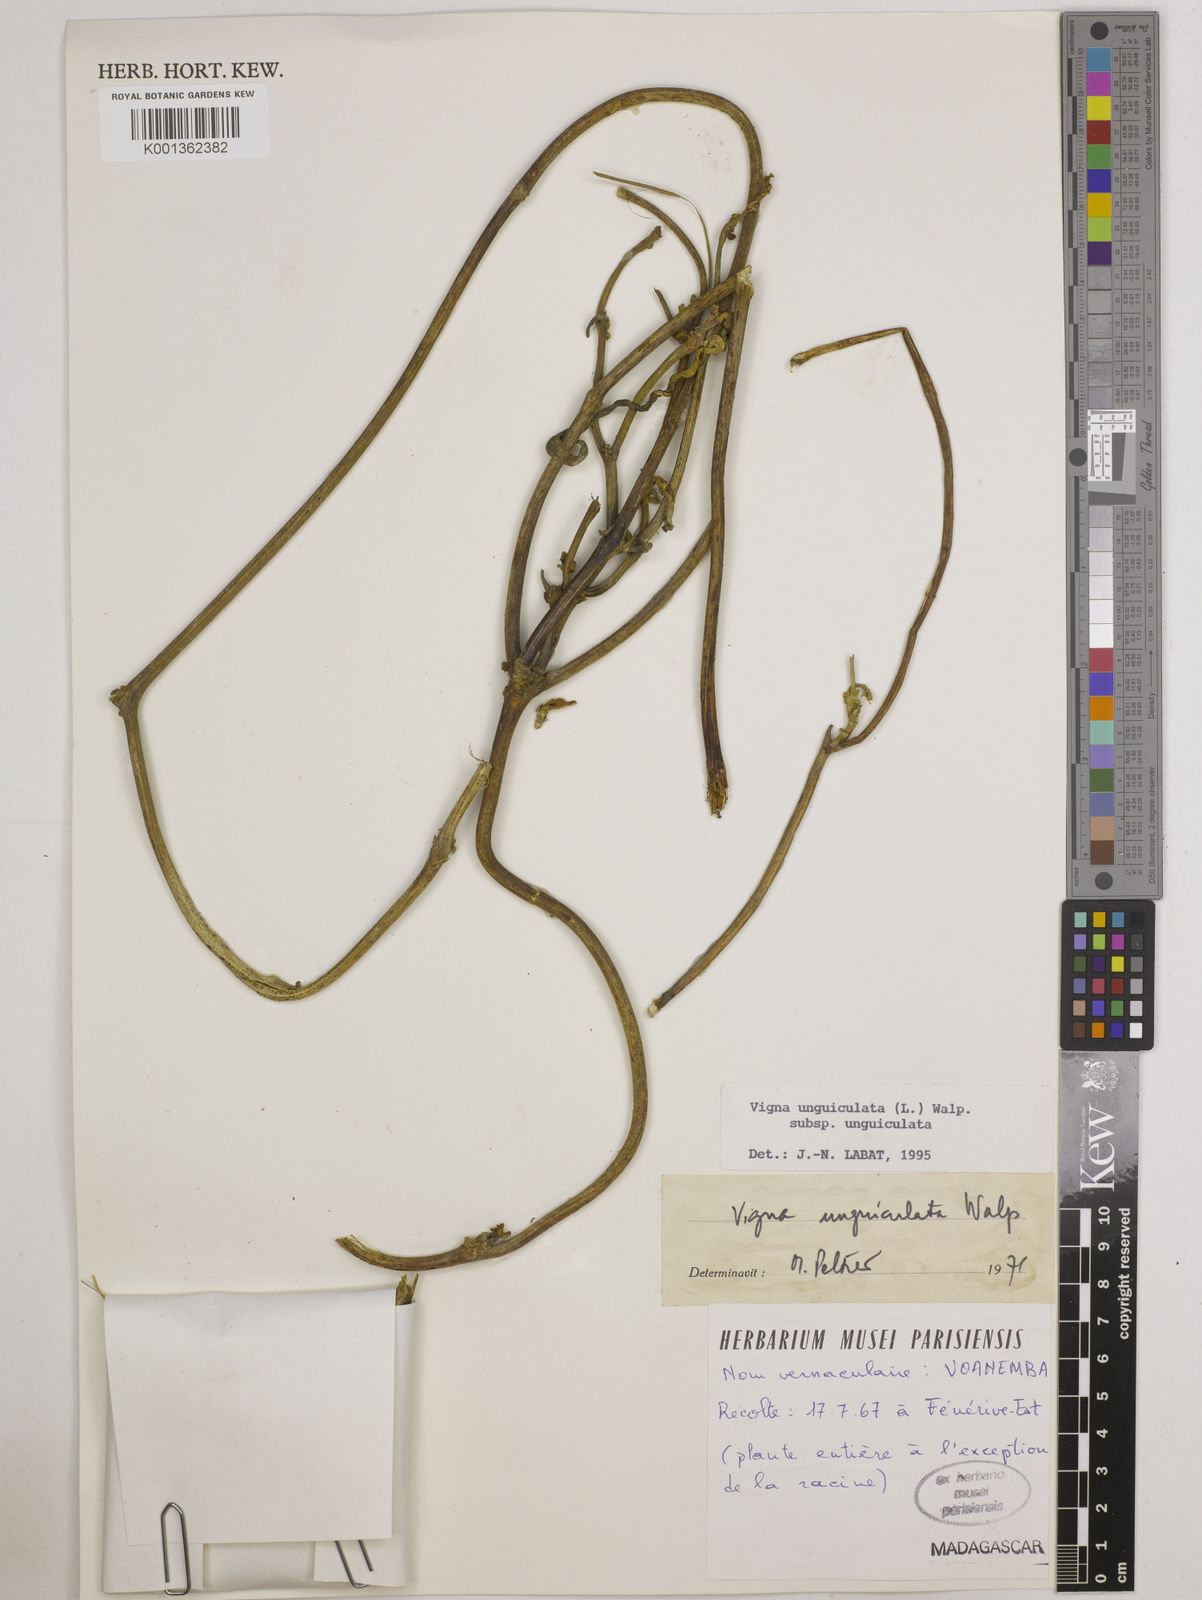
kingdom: Plantae
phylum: Tracheophyta
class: Magnoliopsida
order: Fabales
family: Fabaceae
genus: Vigna
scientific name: Vigna
